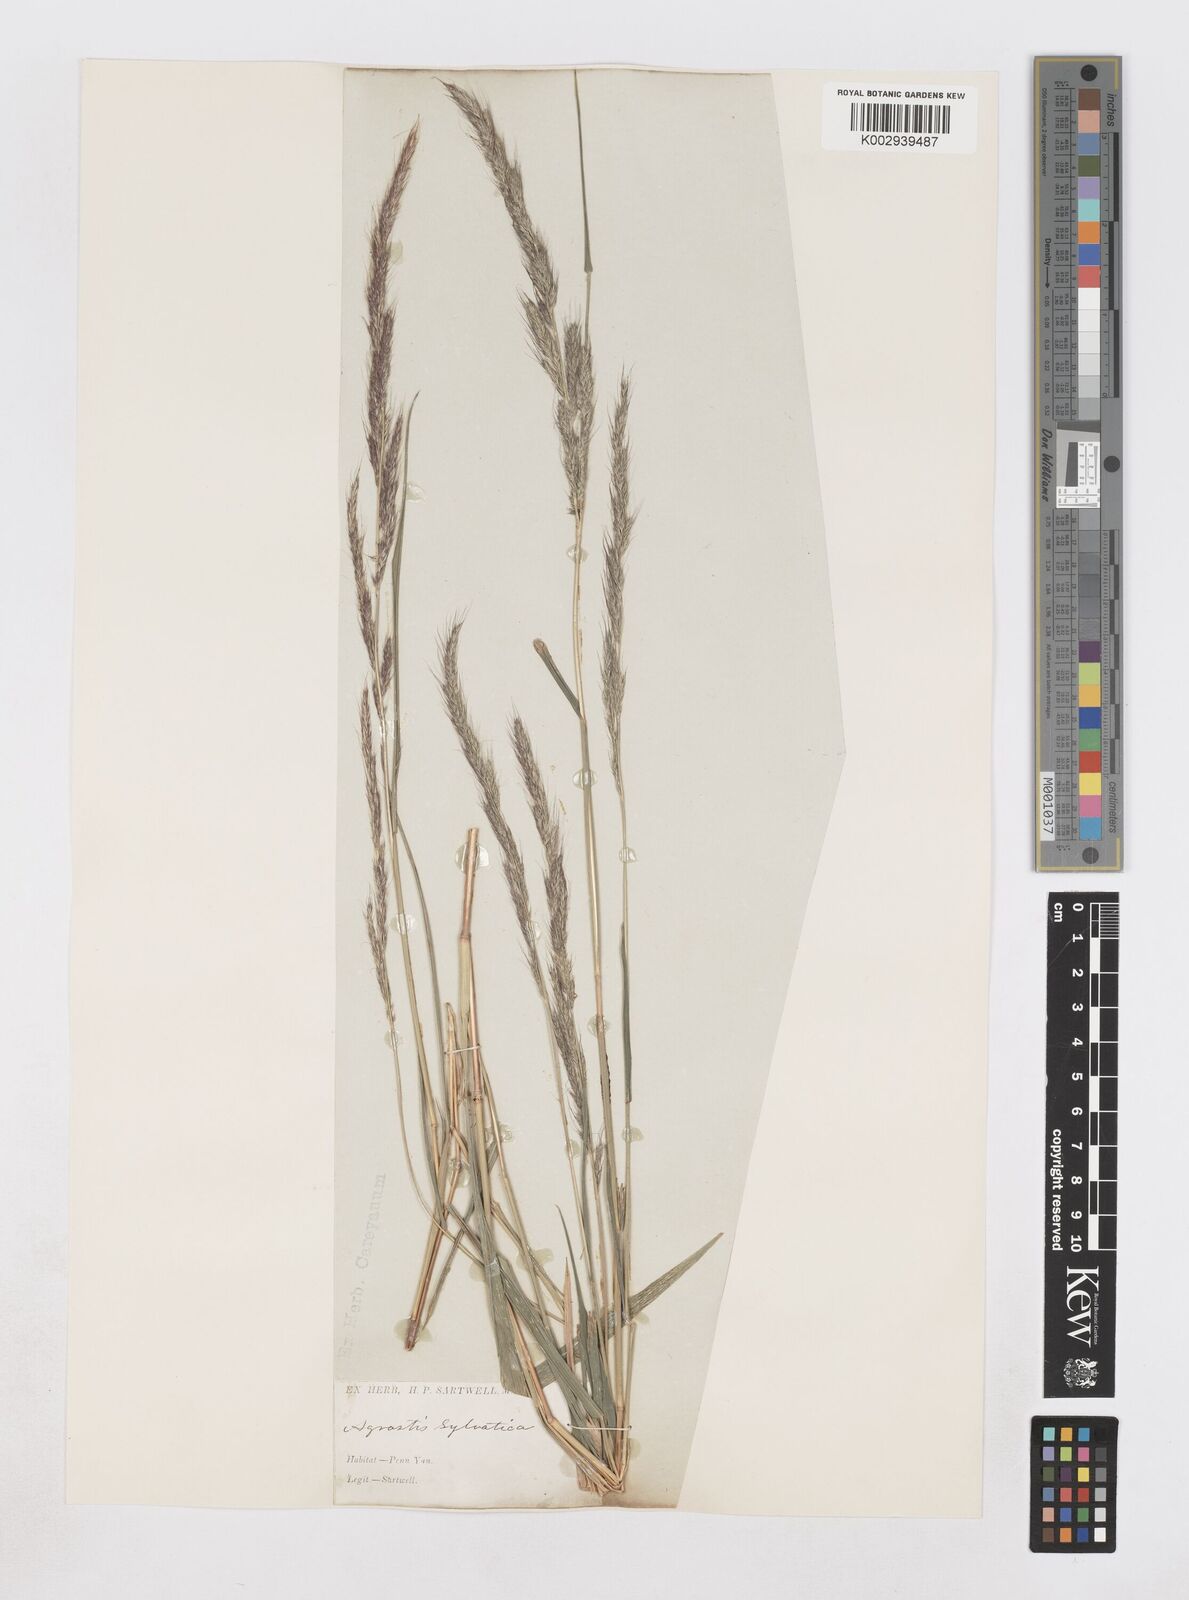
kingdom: Plantae
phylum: Tracheophyta
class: Liliopsida
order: Poales
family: Poaceae
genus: Muhlenbergia
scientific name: Muhlenbergia sylvatica
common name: Woodland muhly
